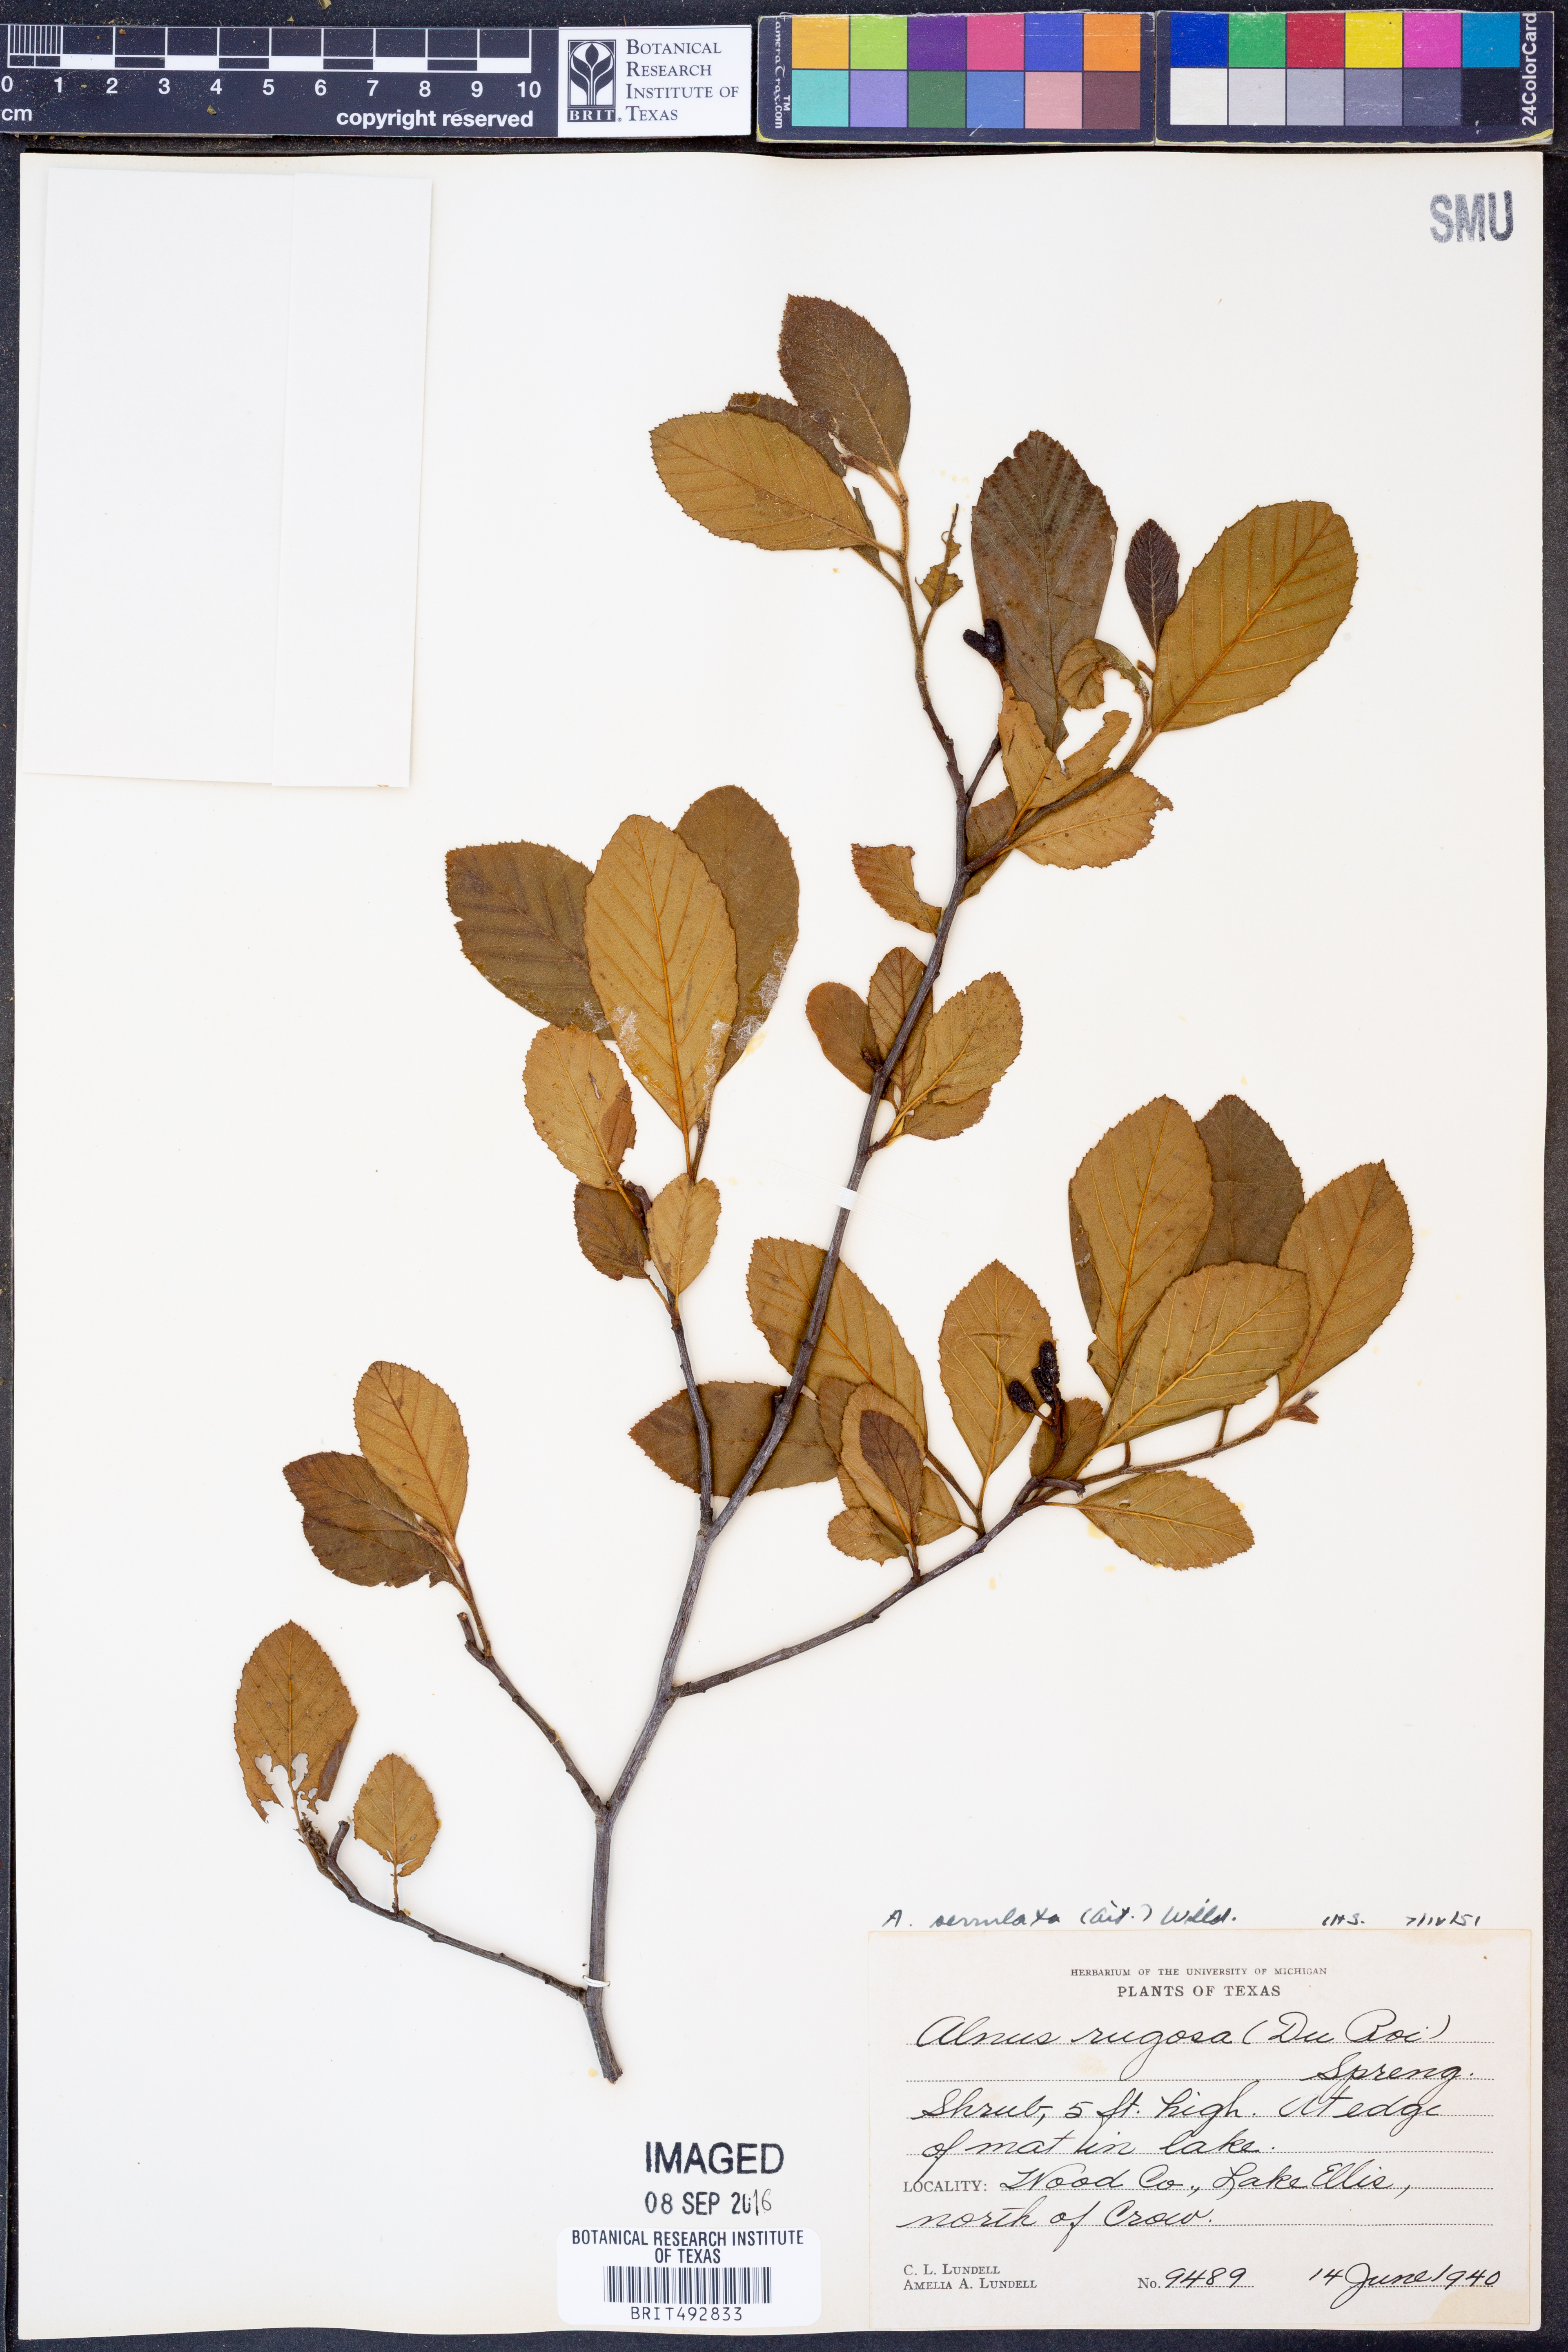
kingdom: Plantae
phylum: Tracheophyta
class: Magnoliopsida
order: Fagales
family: Betulaceae
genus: Alnus
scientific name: Alnus serrulata
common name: Hazel alder
